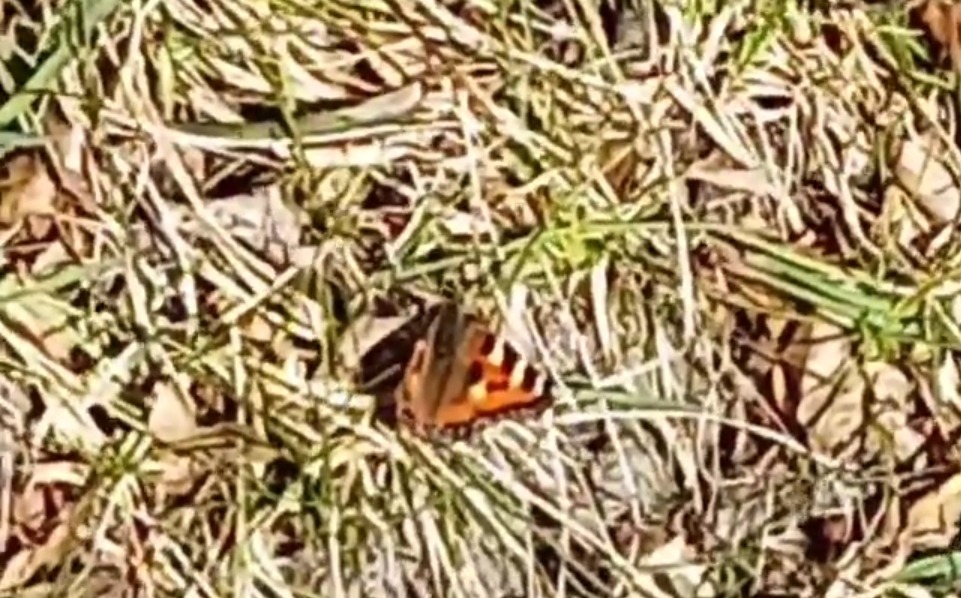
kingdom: Animalia
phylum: Arthropoda
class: Insecta
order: Lepidoptera
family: Nymphalidae
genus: Aglais
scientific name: Aglais urticae
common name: Nældens takvinge
